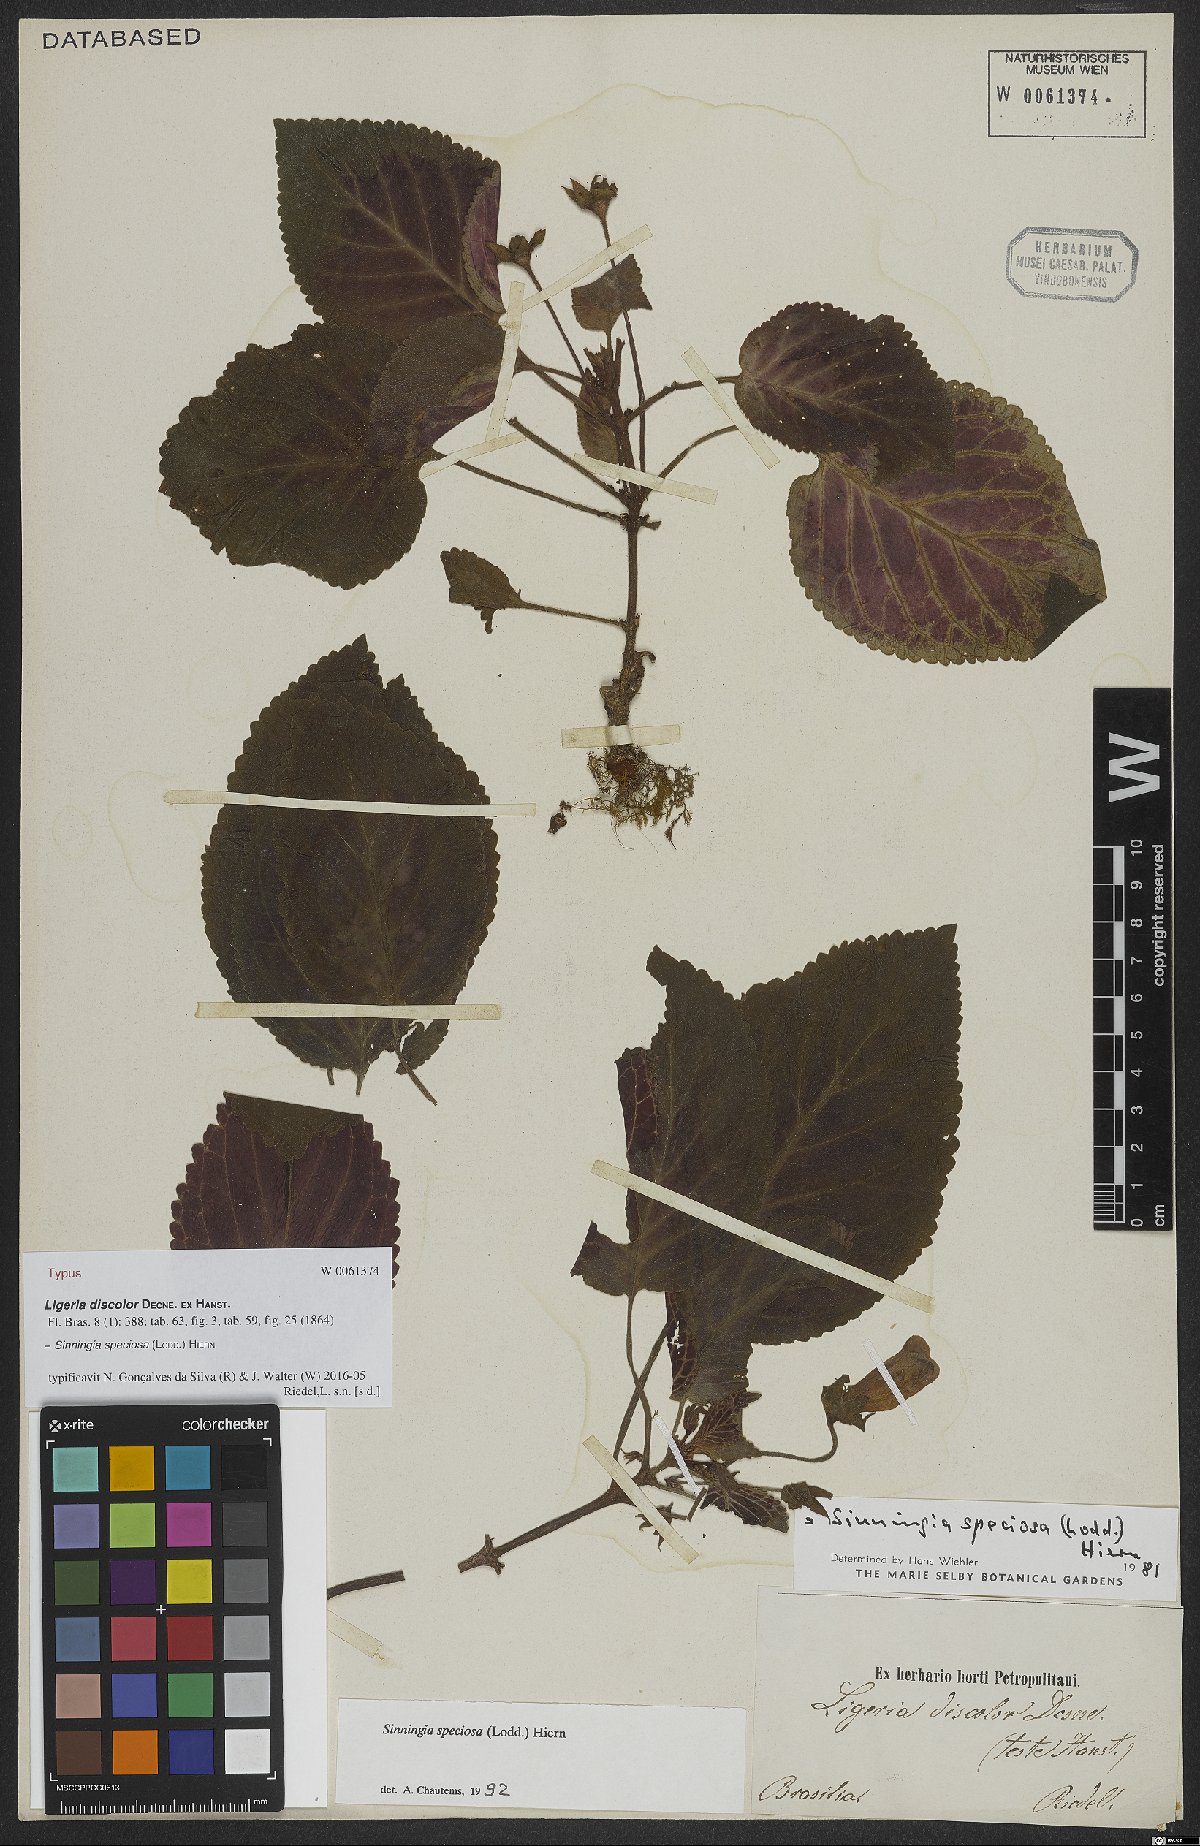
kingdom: Plantae
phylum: Tracheophyta
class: Magnoliopsida
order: Lamiales
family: Gesneriaceae
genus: Sinningia
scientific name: Sinningia speciosa
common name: Brazilian gloxinia
